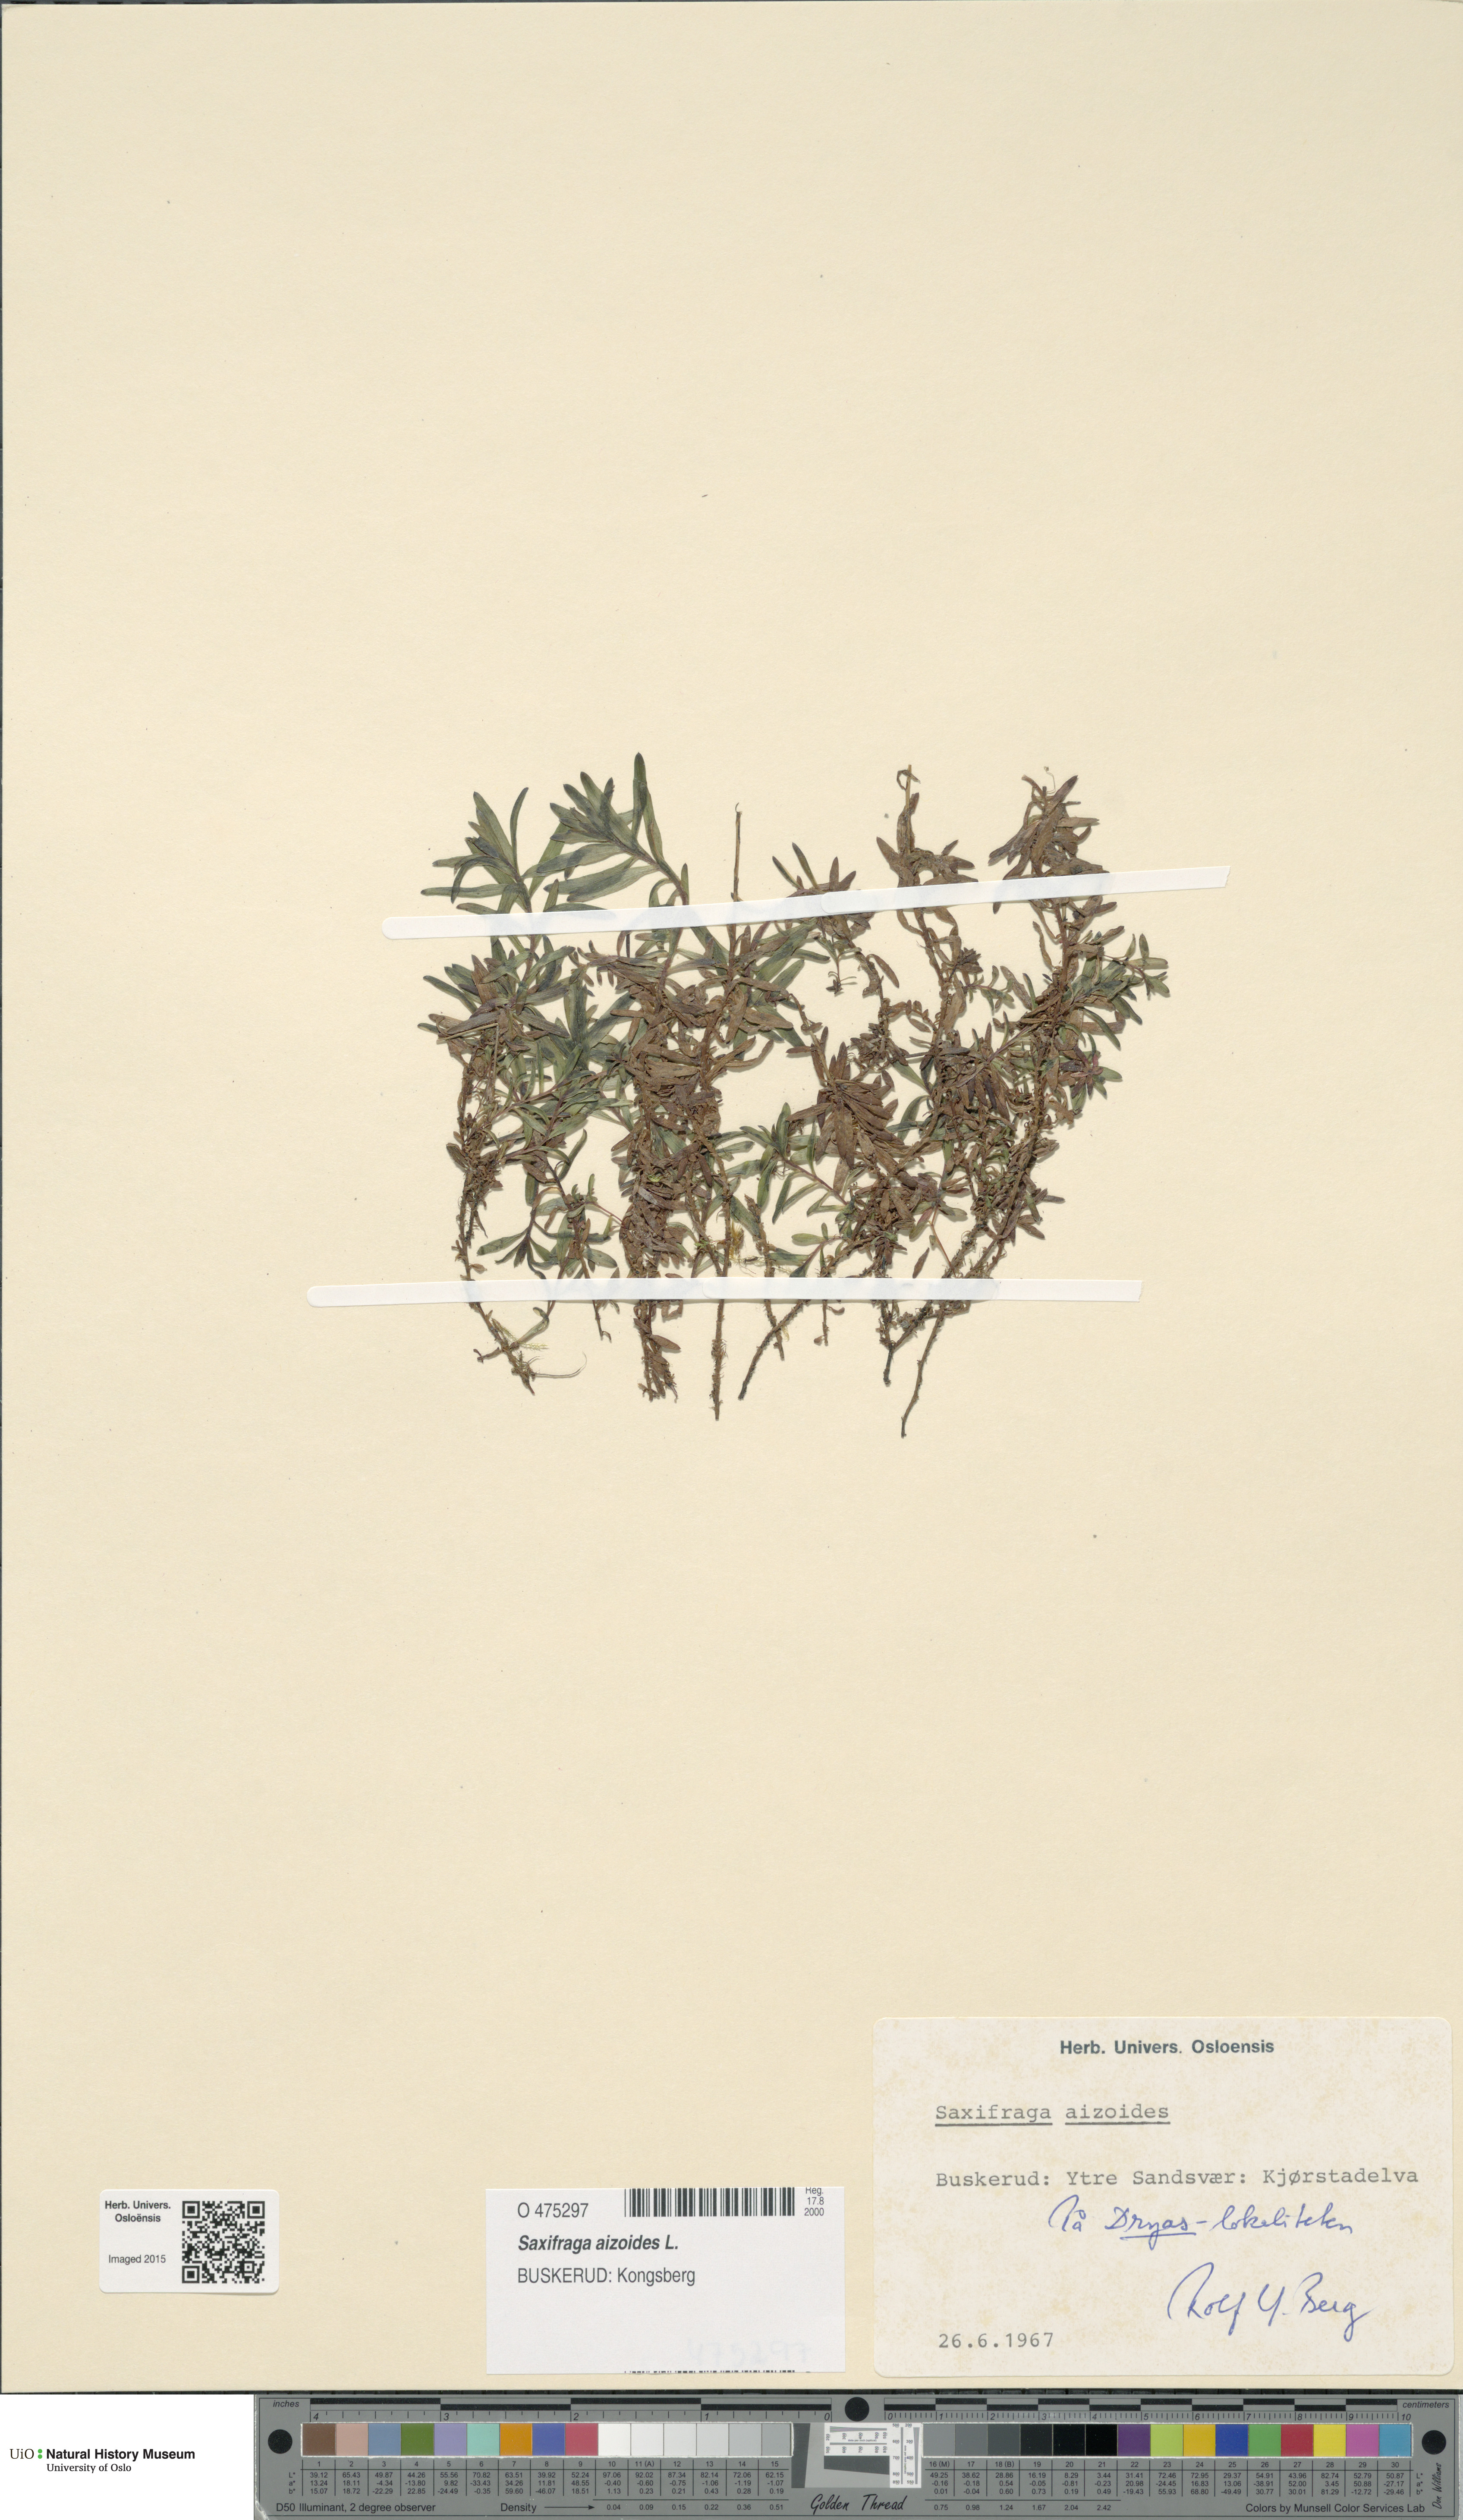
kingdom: Plantae
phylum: Tracheophyta
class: Magnoliopsida
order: Saxifragales
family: Saxifragaceae
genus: Saxifraga
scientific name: Saxifraga aizoides
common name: Yellow mountain saxifrage
